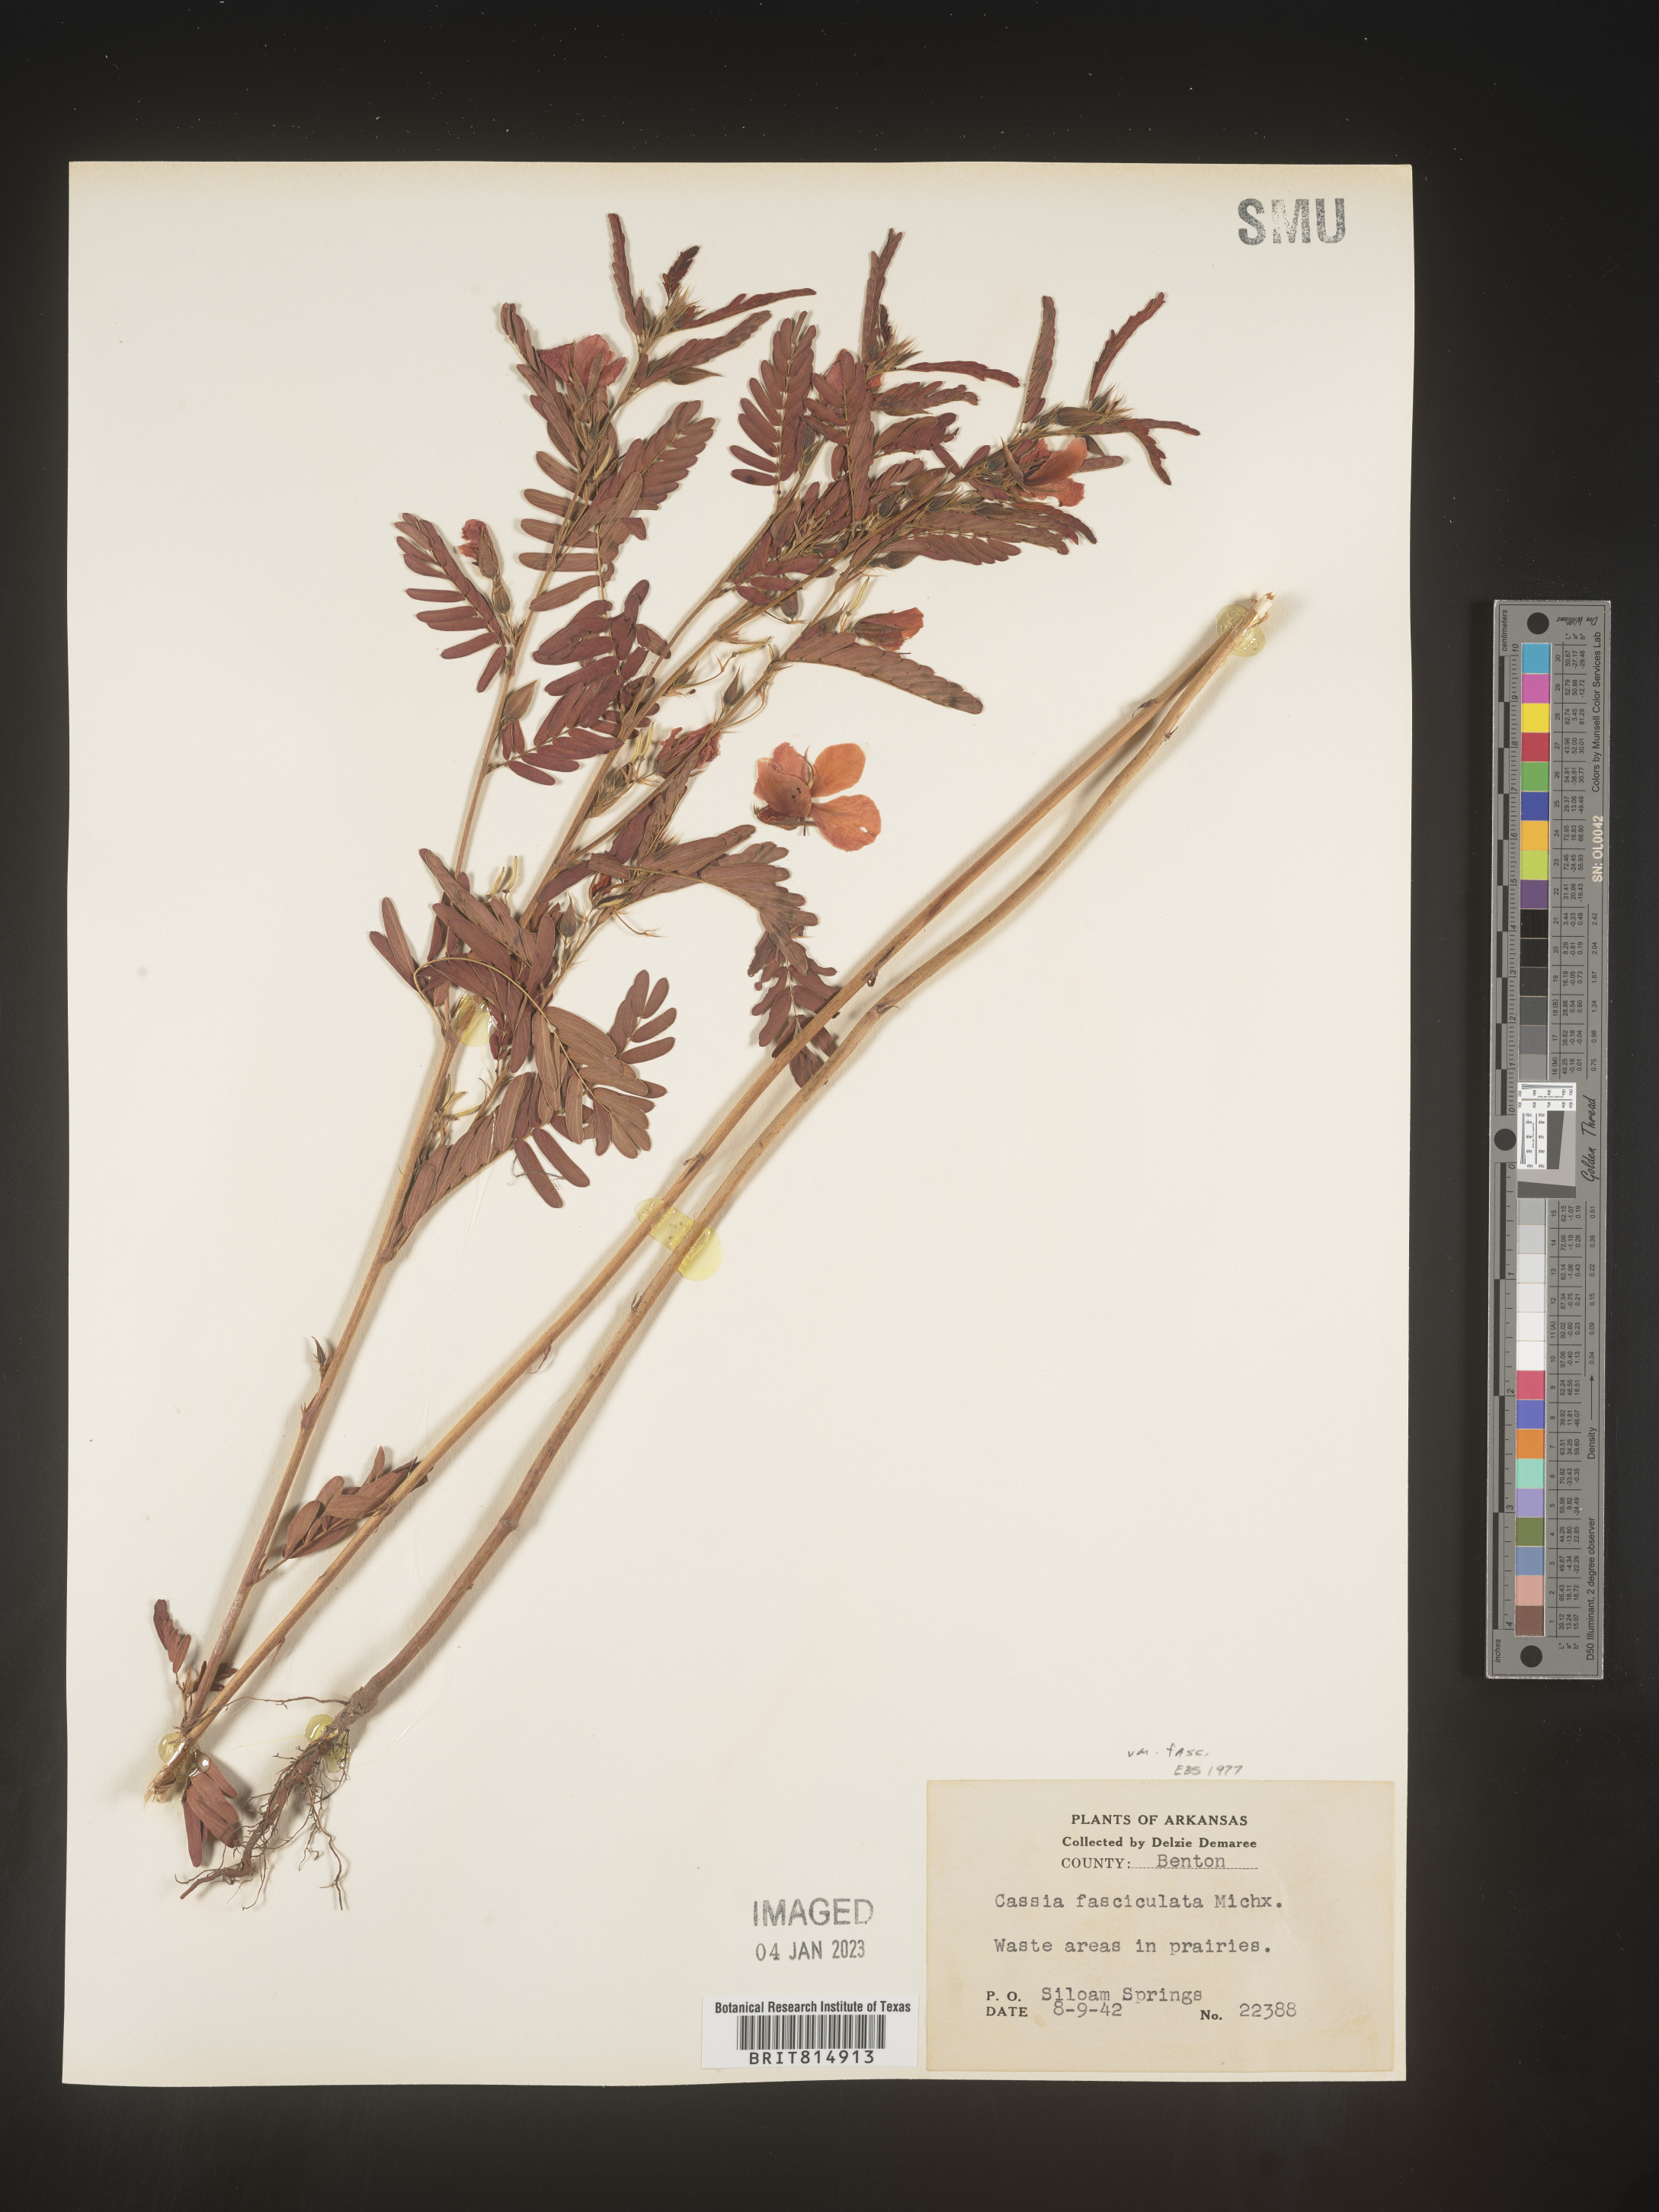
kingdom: Plantae
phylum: Tracheophyta
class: Magnoliopsida
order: Fabales
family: Fabaceae
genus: Chamaecrista
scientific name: Chamaecrista fasciculata
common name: Golden cassia
